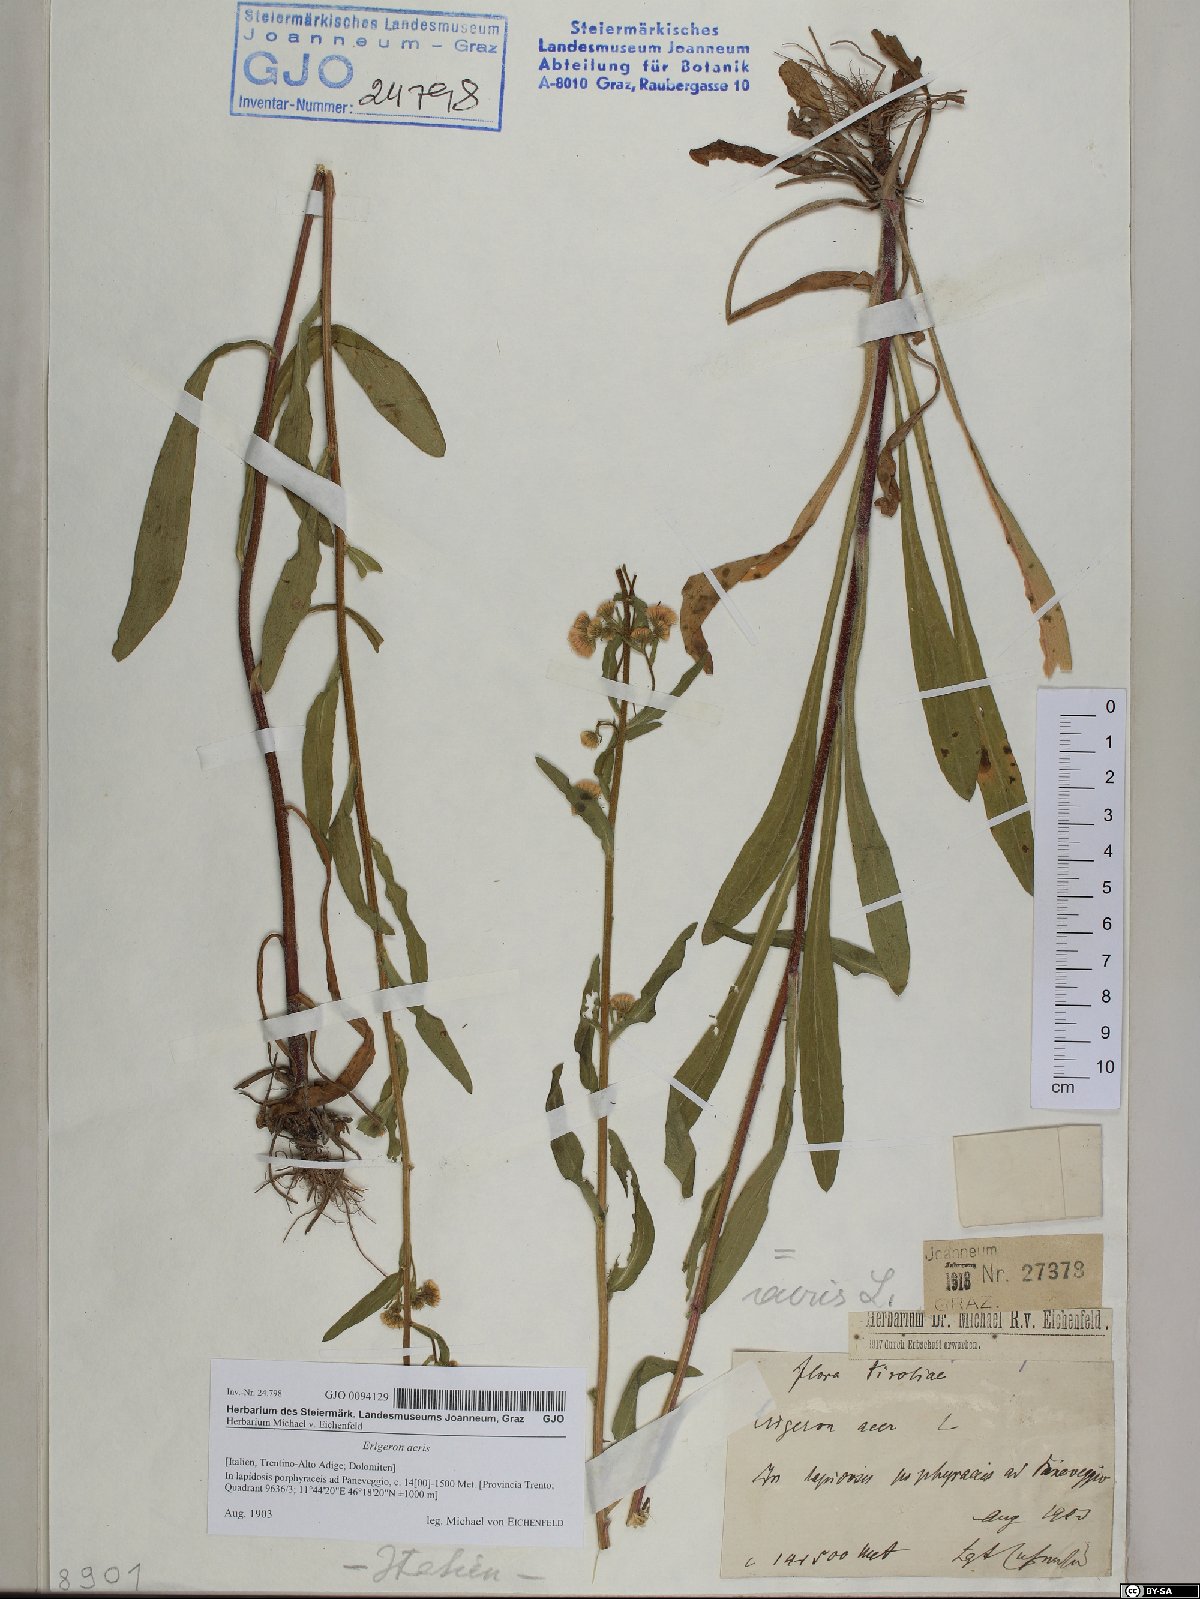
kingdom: Plantae
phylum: Tracheophyta
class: Magnoliopsida
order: Asterales
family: Asteraceae
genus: Erigeron
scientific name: Erigeron acris
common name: Blue fleabane
